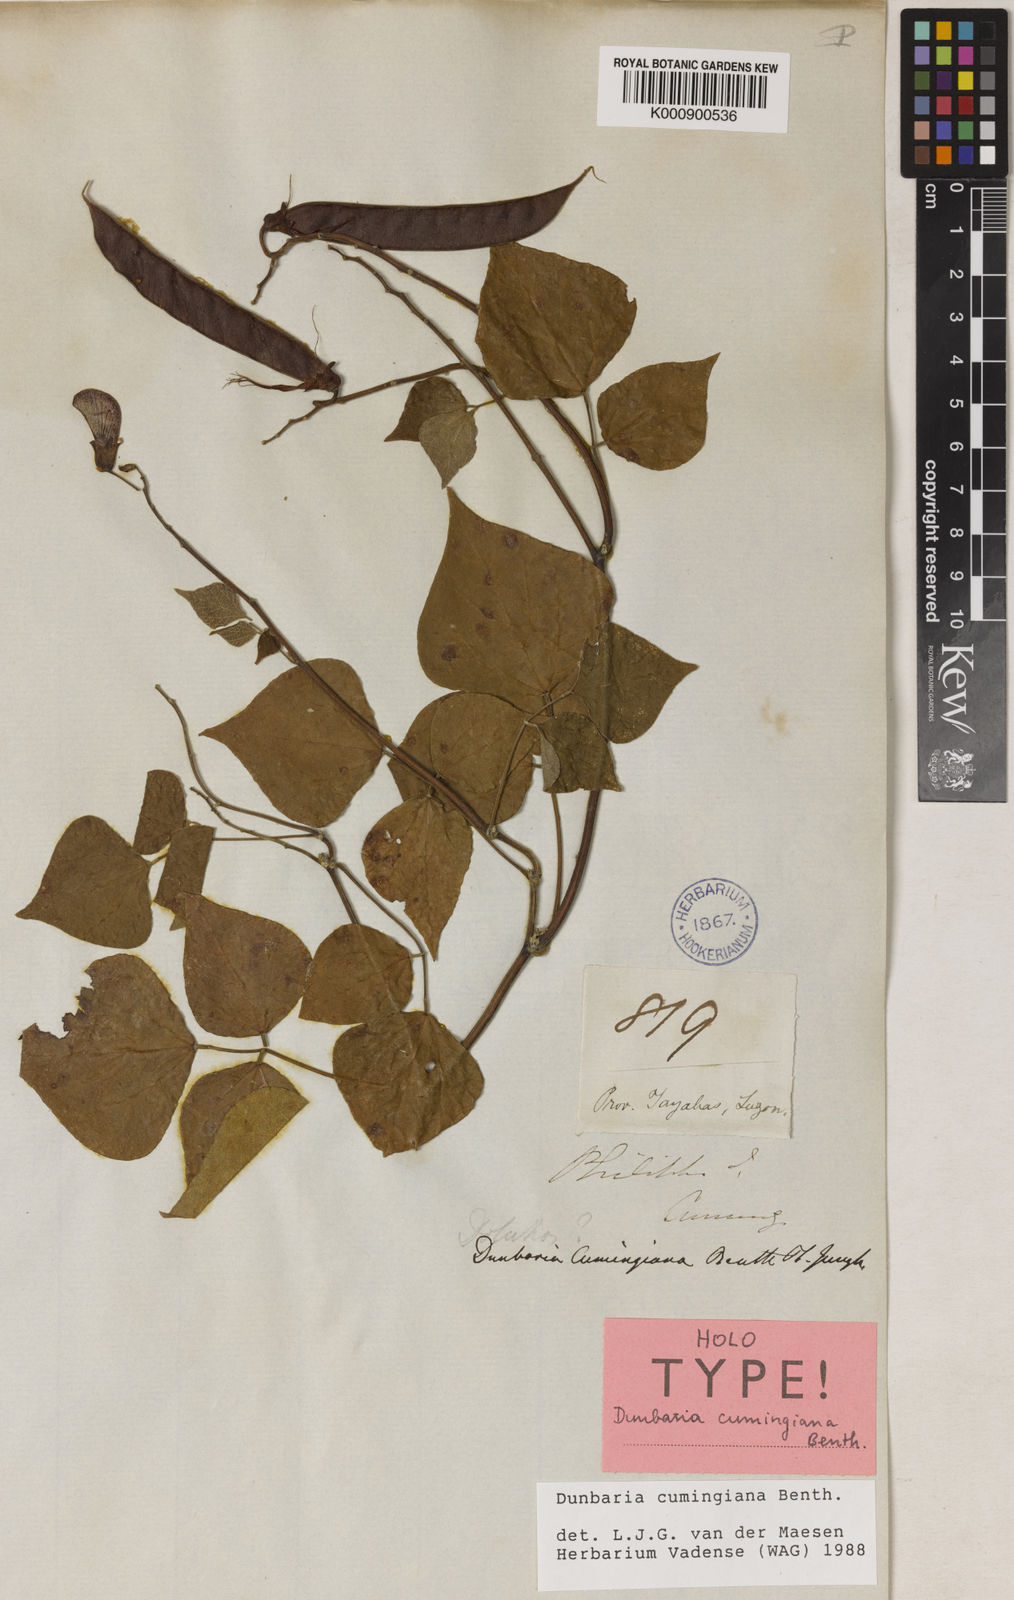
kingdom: Plantae
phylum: Tracheophyta
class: Magnoliopsida
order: Fabales
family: Fabaceae
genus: Dunbaria
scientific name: Dunbaria cumingiana
